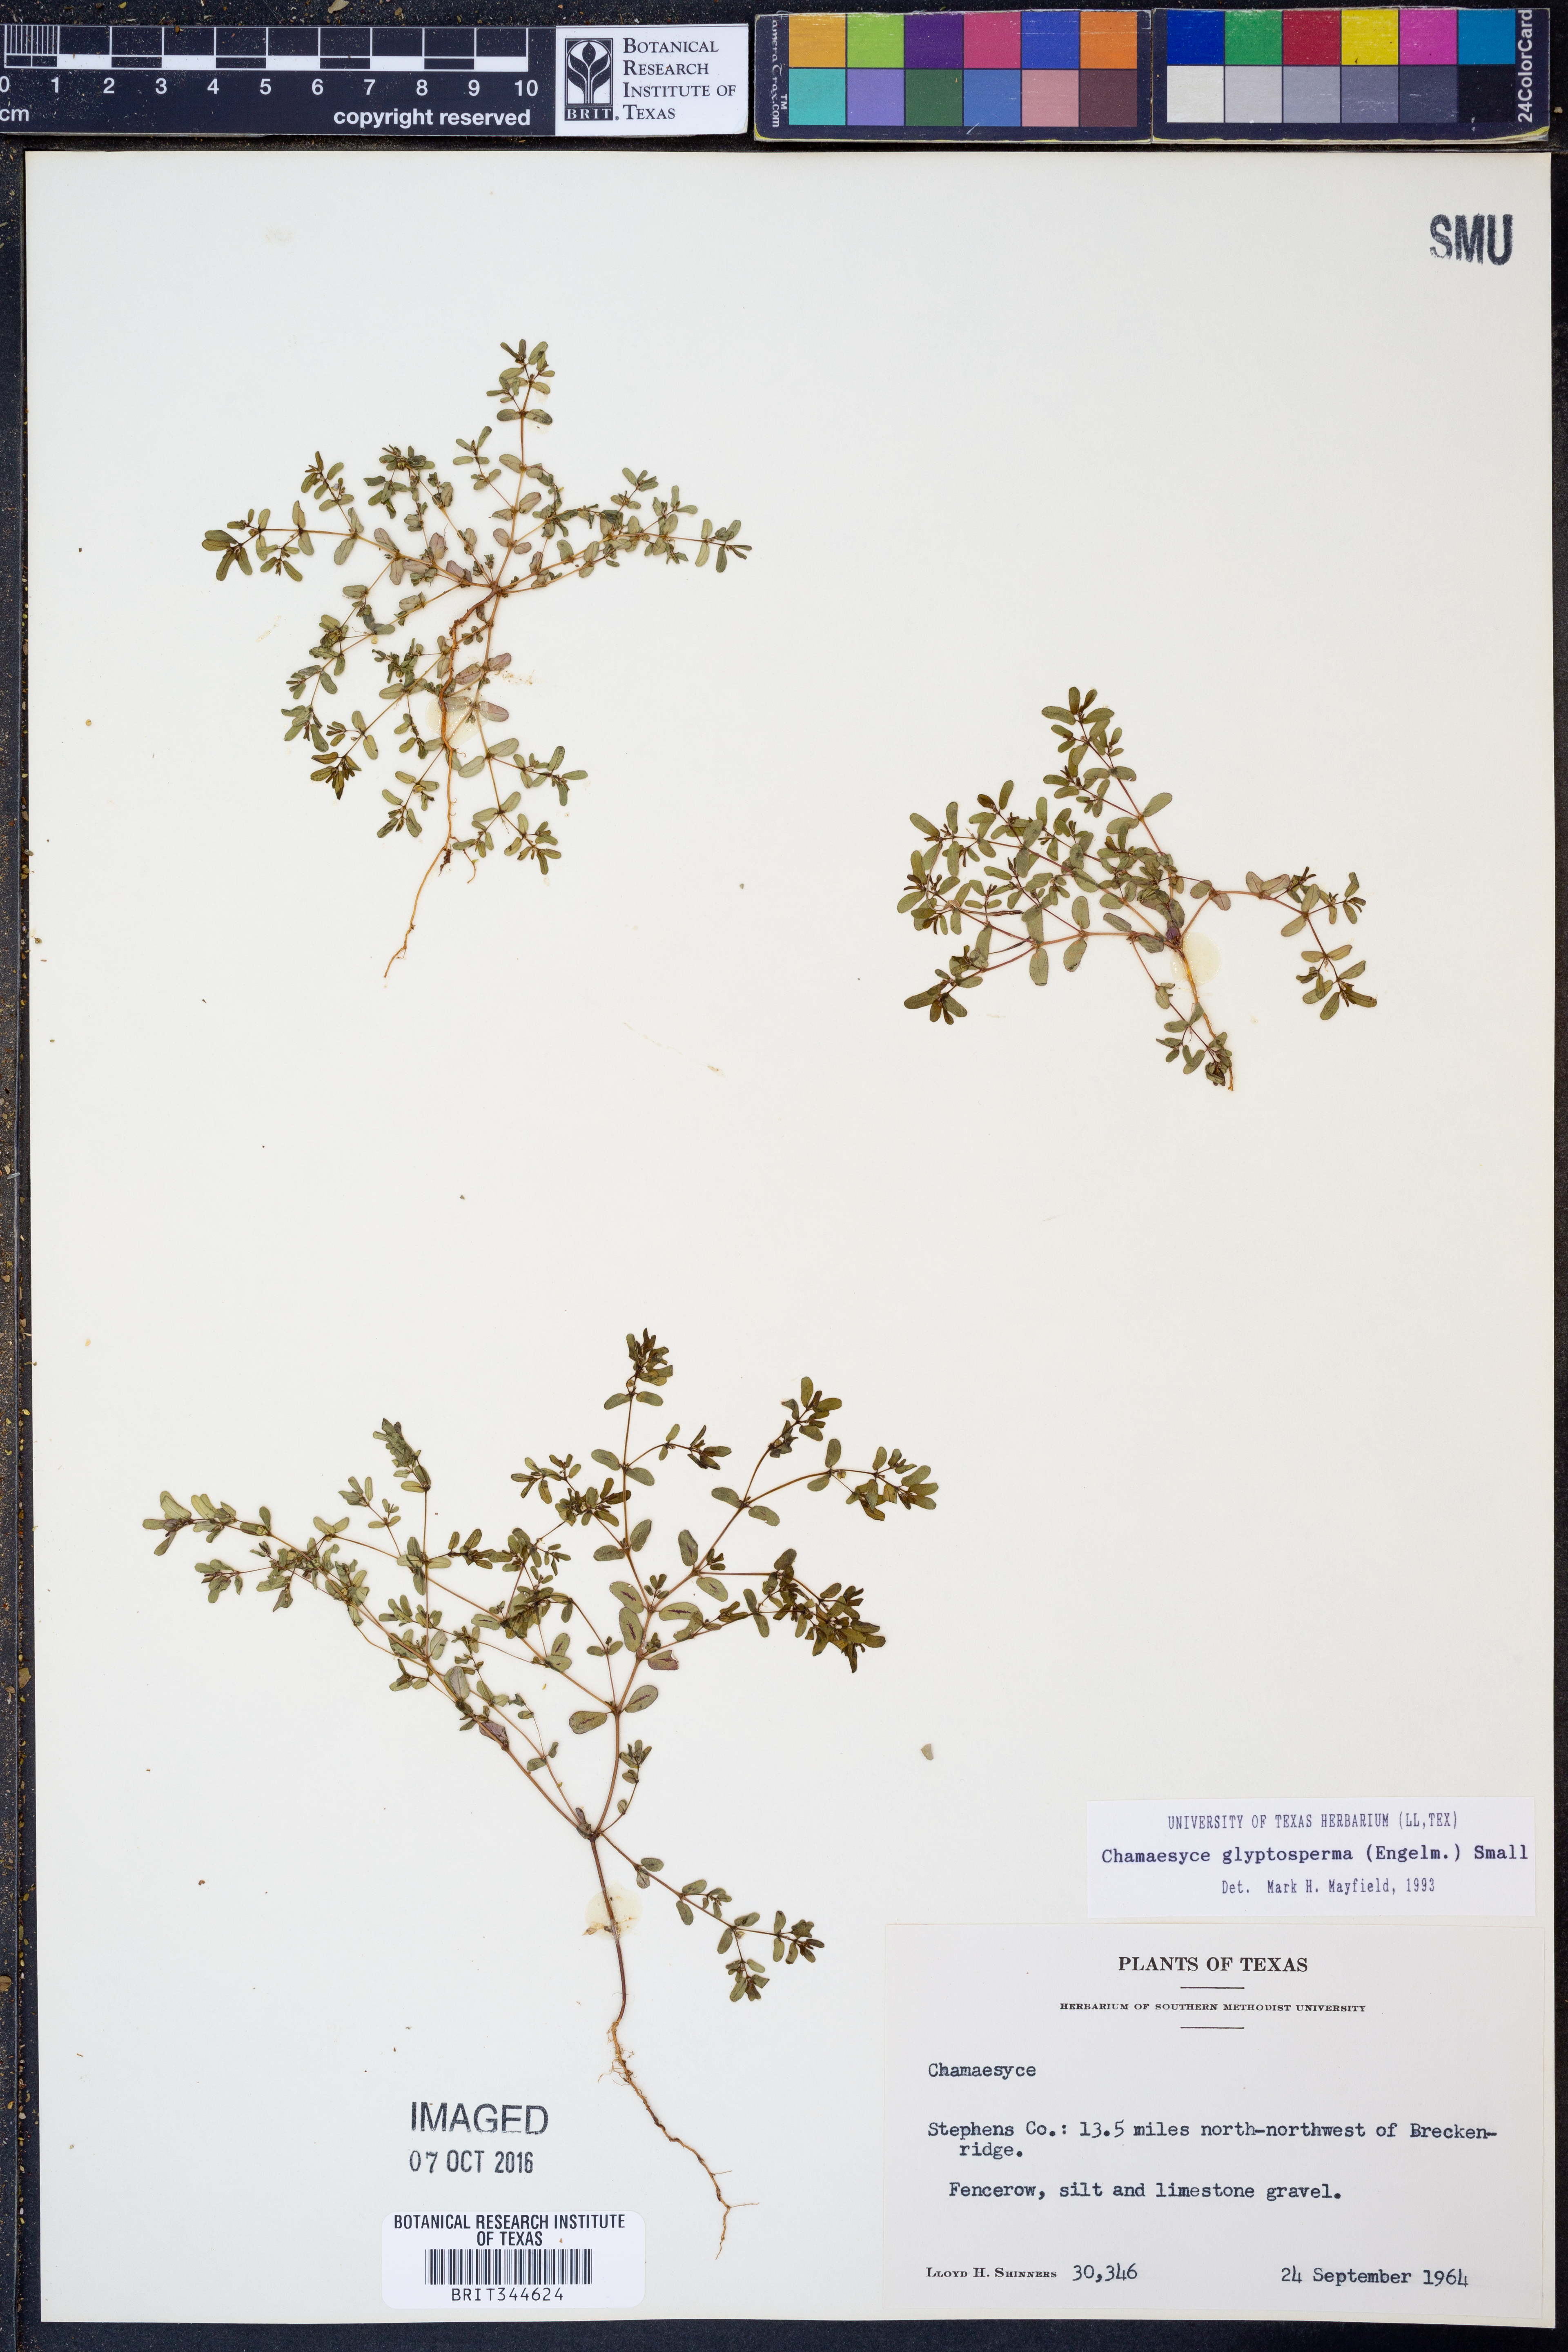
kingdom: Plantae
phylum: Tracheophyta
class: Magnoliopsida
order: Malpighiales
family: Euphorbiaceae
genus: Euphorbia
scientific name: Euphorbia glyptosperma
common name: Corrugate-seeded spurge
